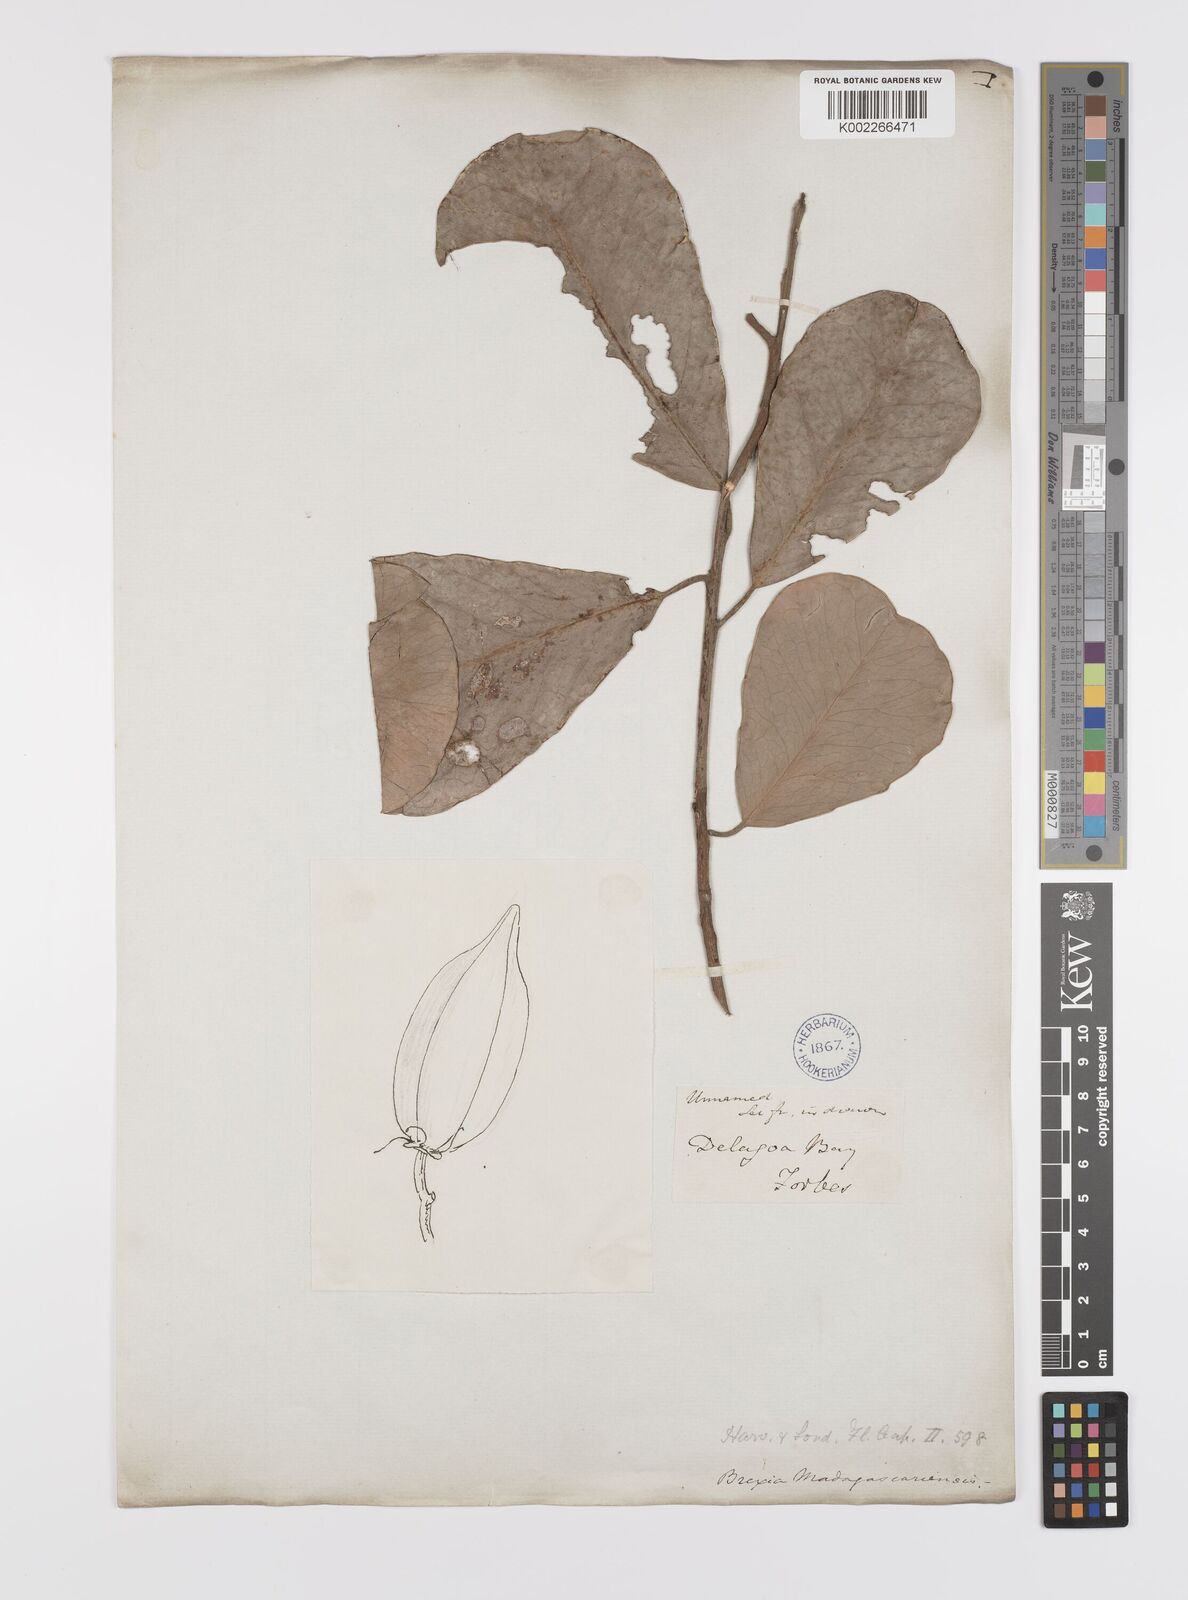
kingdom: Plantae
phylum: Tracheophyta
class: Magnoliopsida
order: Celastrales
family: Celastraceae
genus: Brexia
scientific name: Brexia madagascariensis
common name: Brexia
